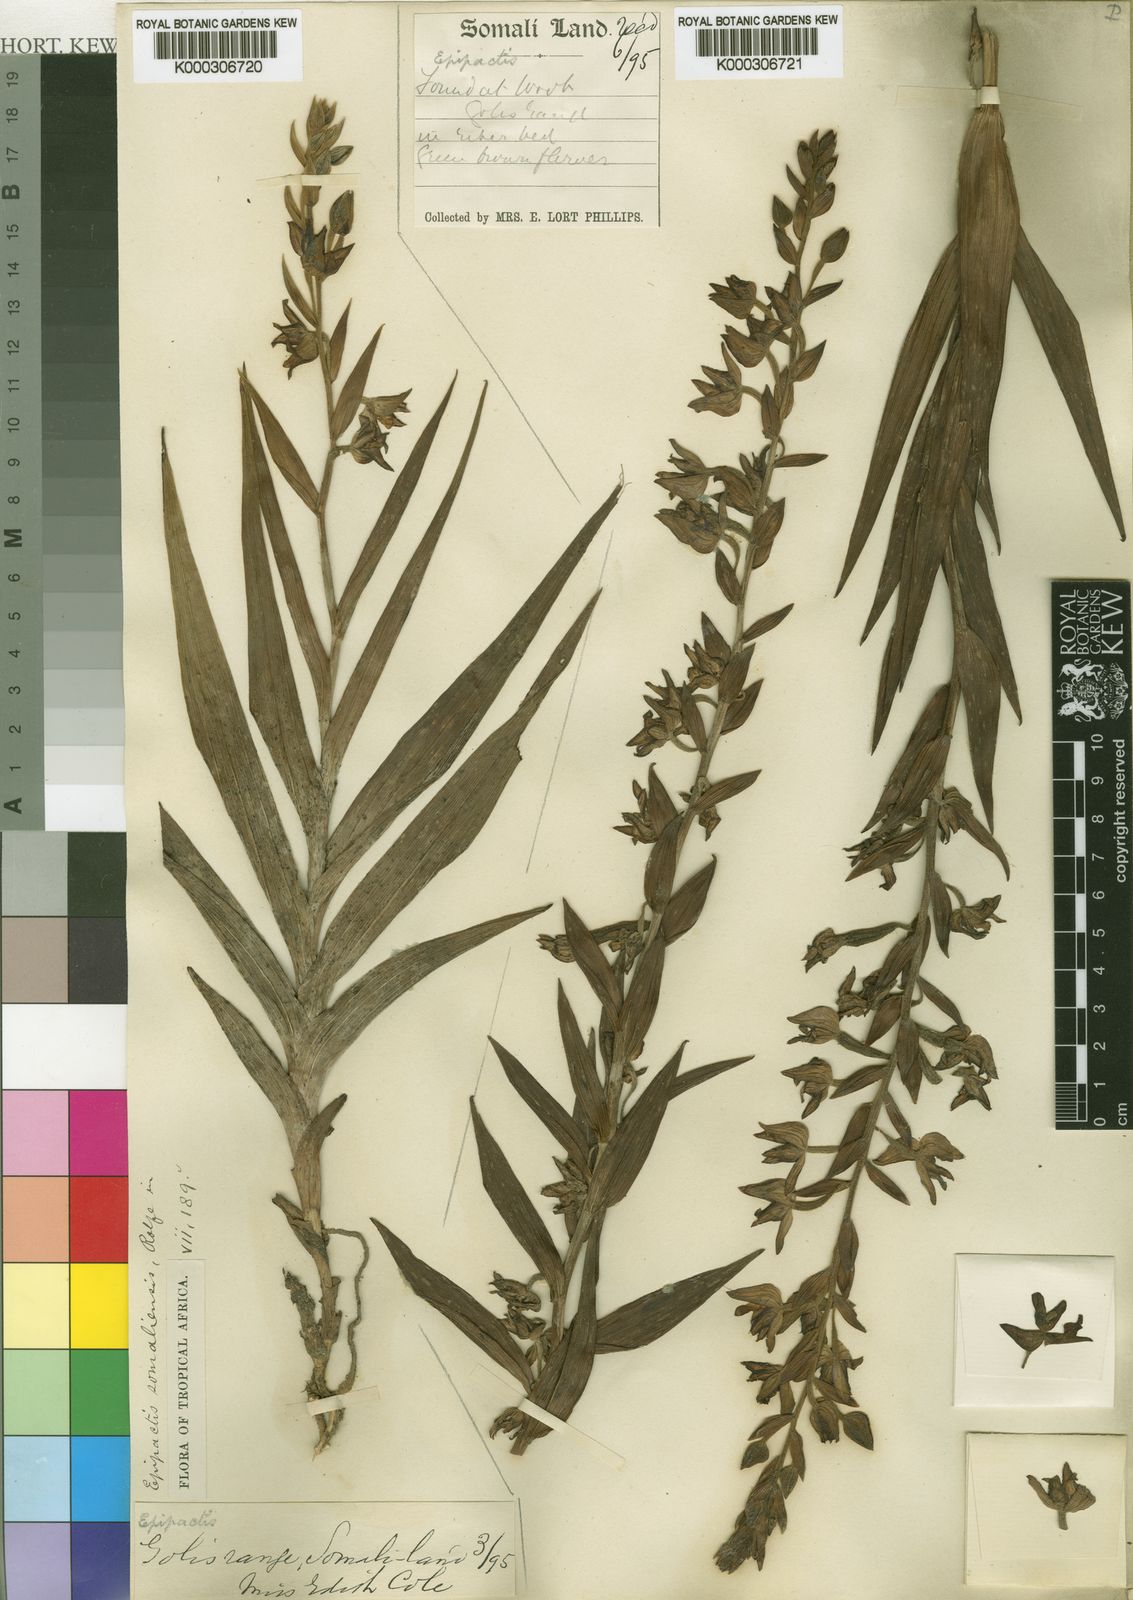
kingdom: Plantae
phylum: Tracheophyta
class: Liliopsida
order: Asparagales
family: Orchidaceae
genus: Epipactis
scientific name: Epipactis veratrifolia
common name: Eastern marsh helleborine
